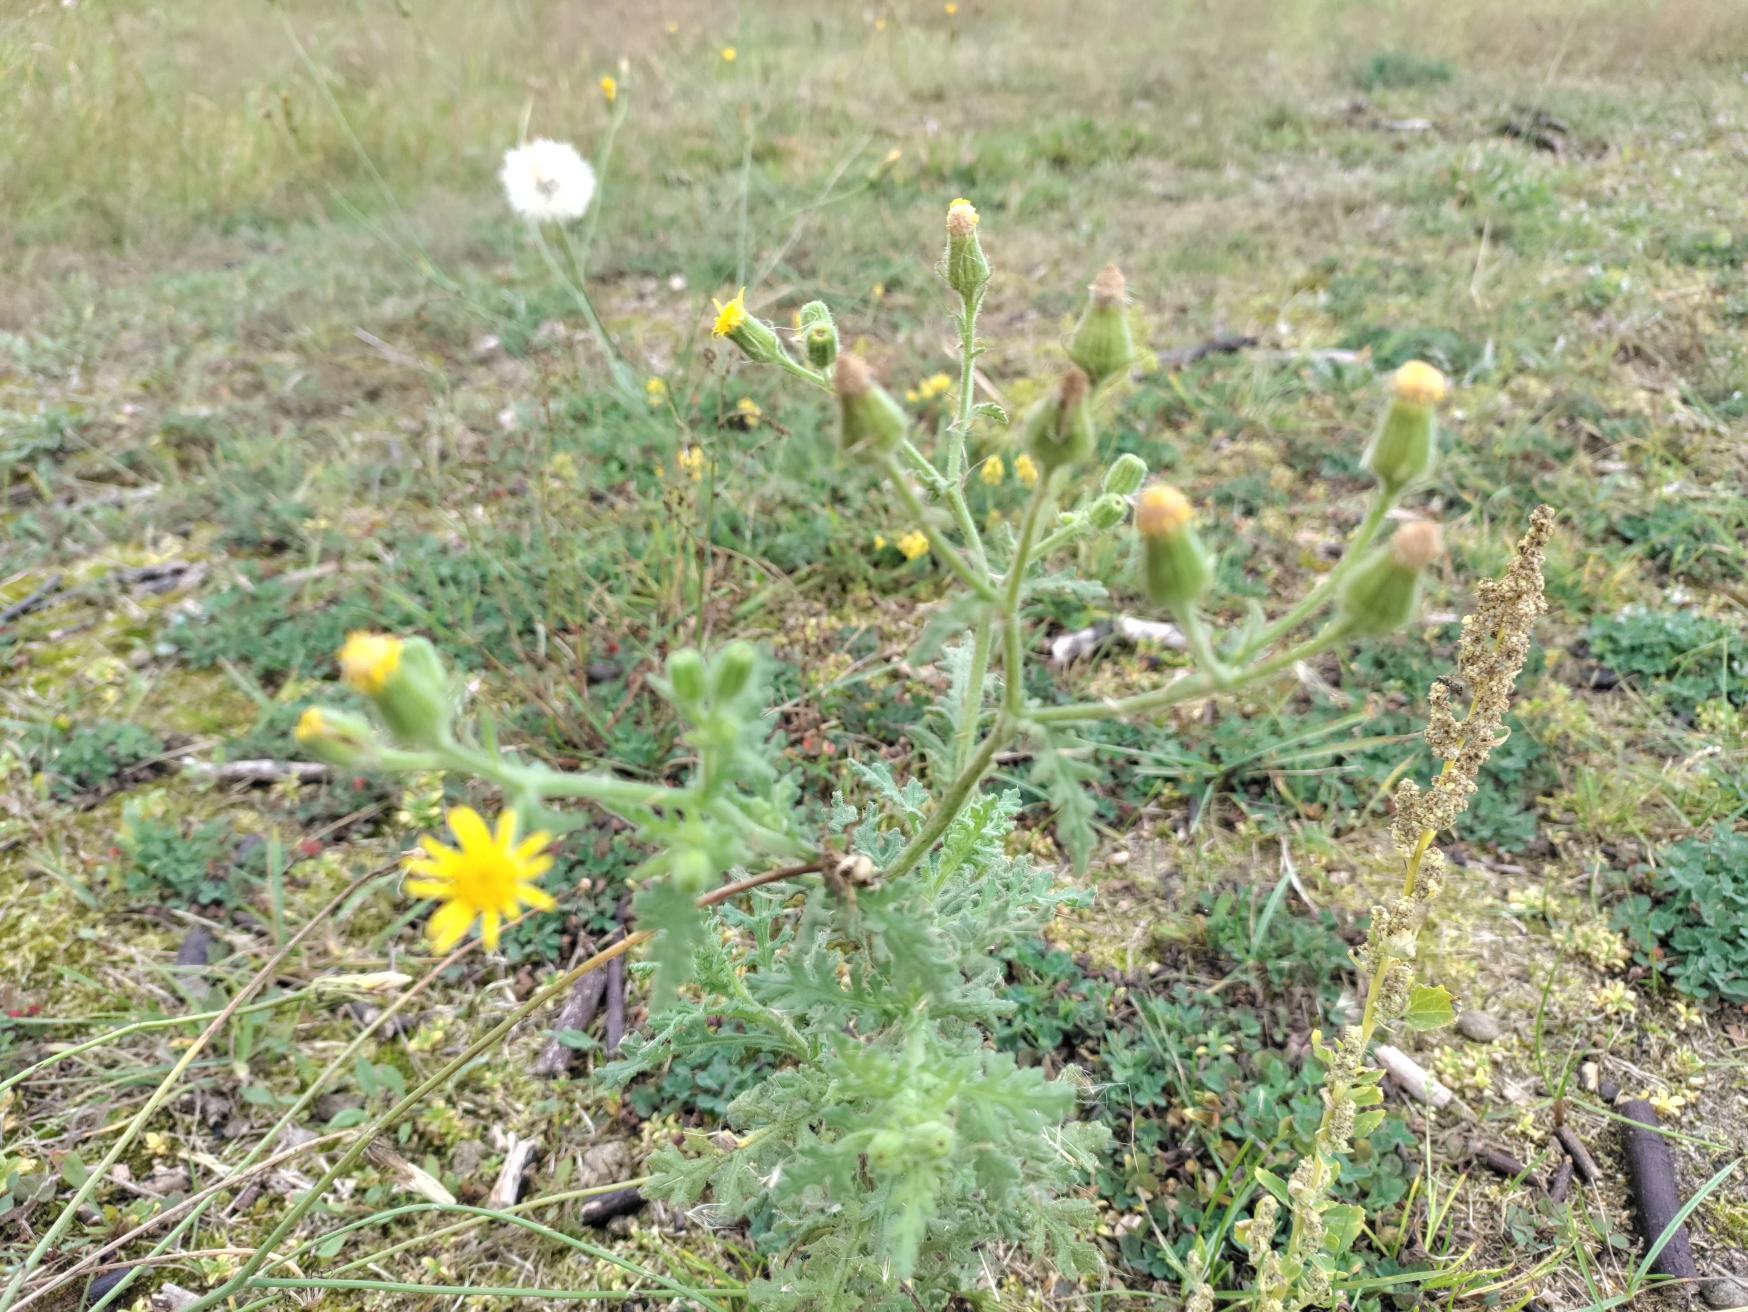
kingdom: Plantae
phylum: Tracheophyta
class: Magnoliopsida
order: Asterales
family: Asteraceae
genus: Senecio
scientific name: Senecio viscosus
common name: Klæbrig brandbæger
